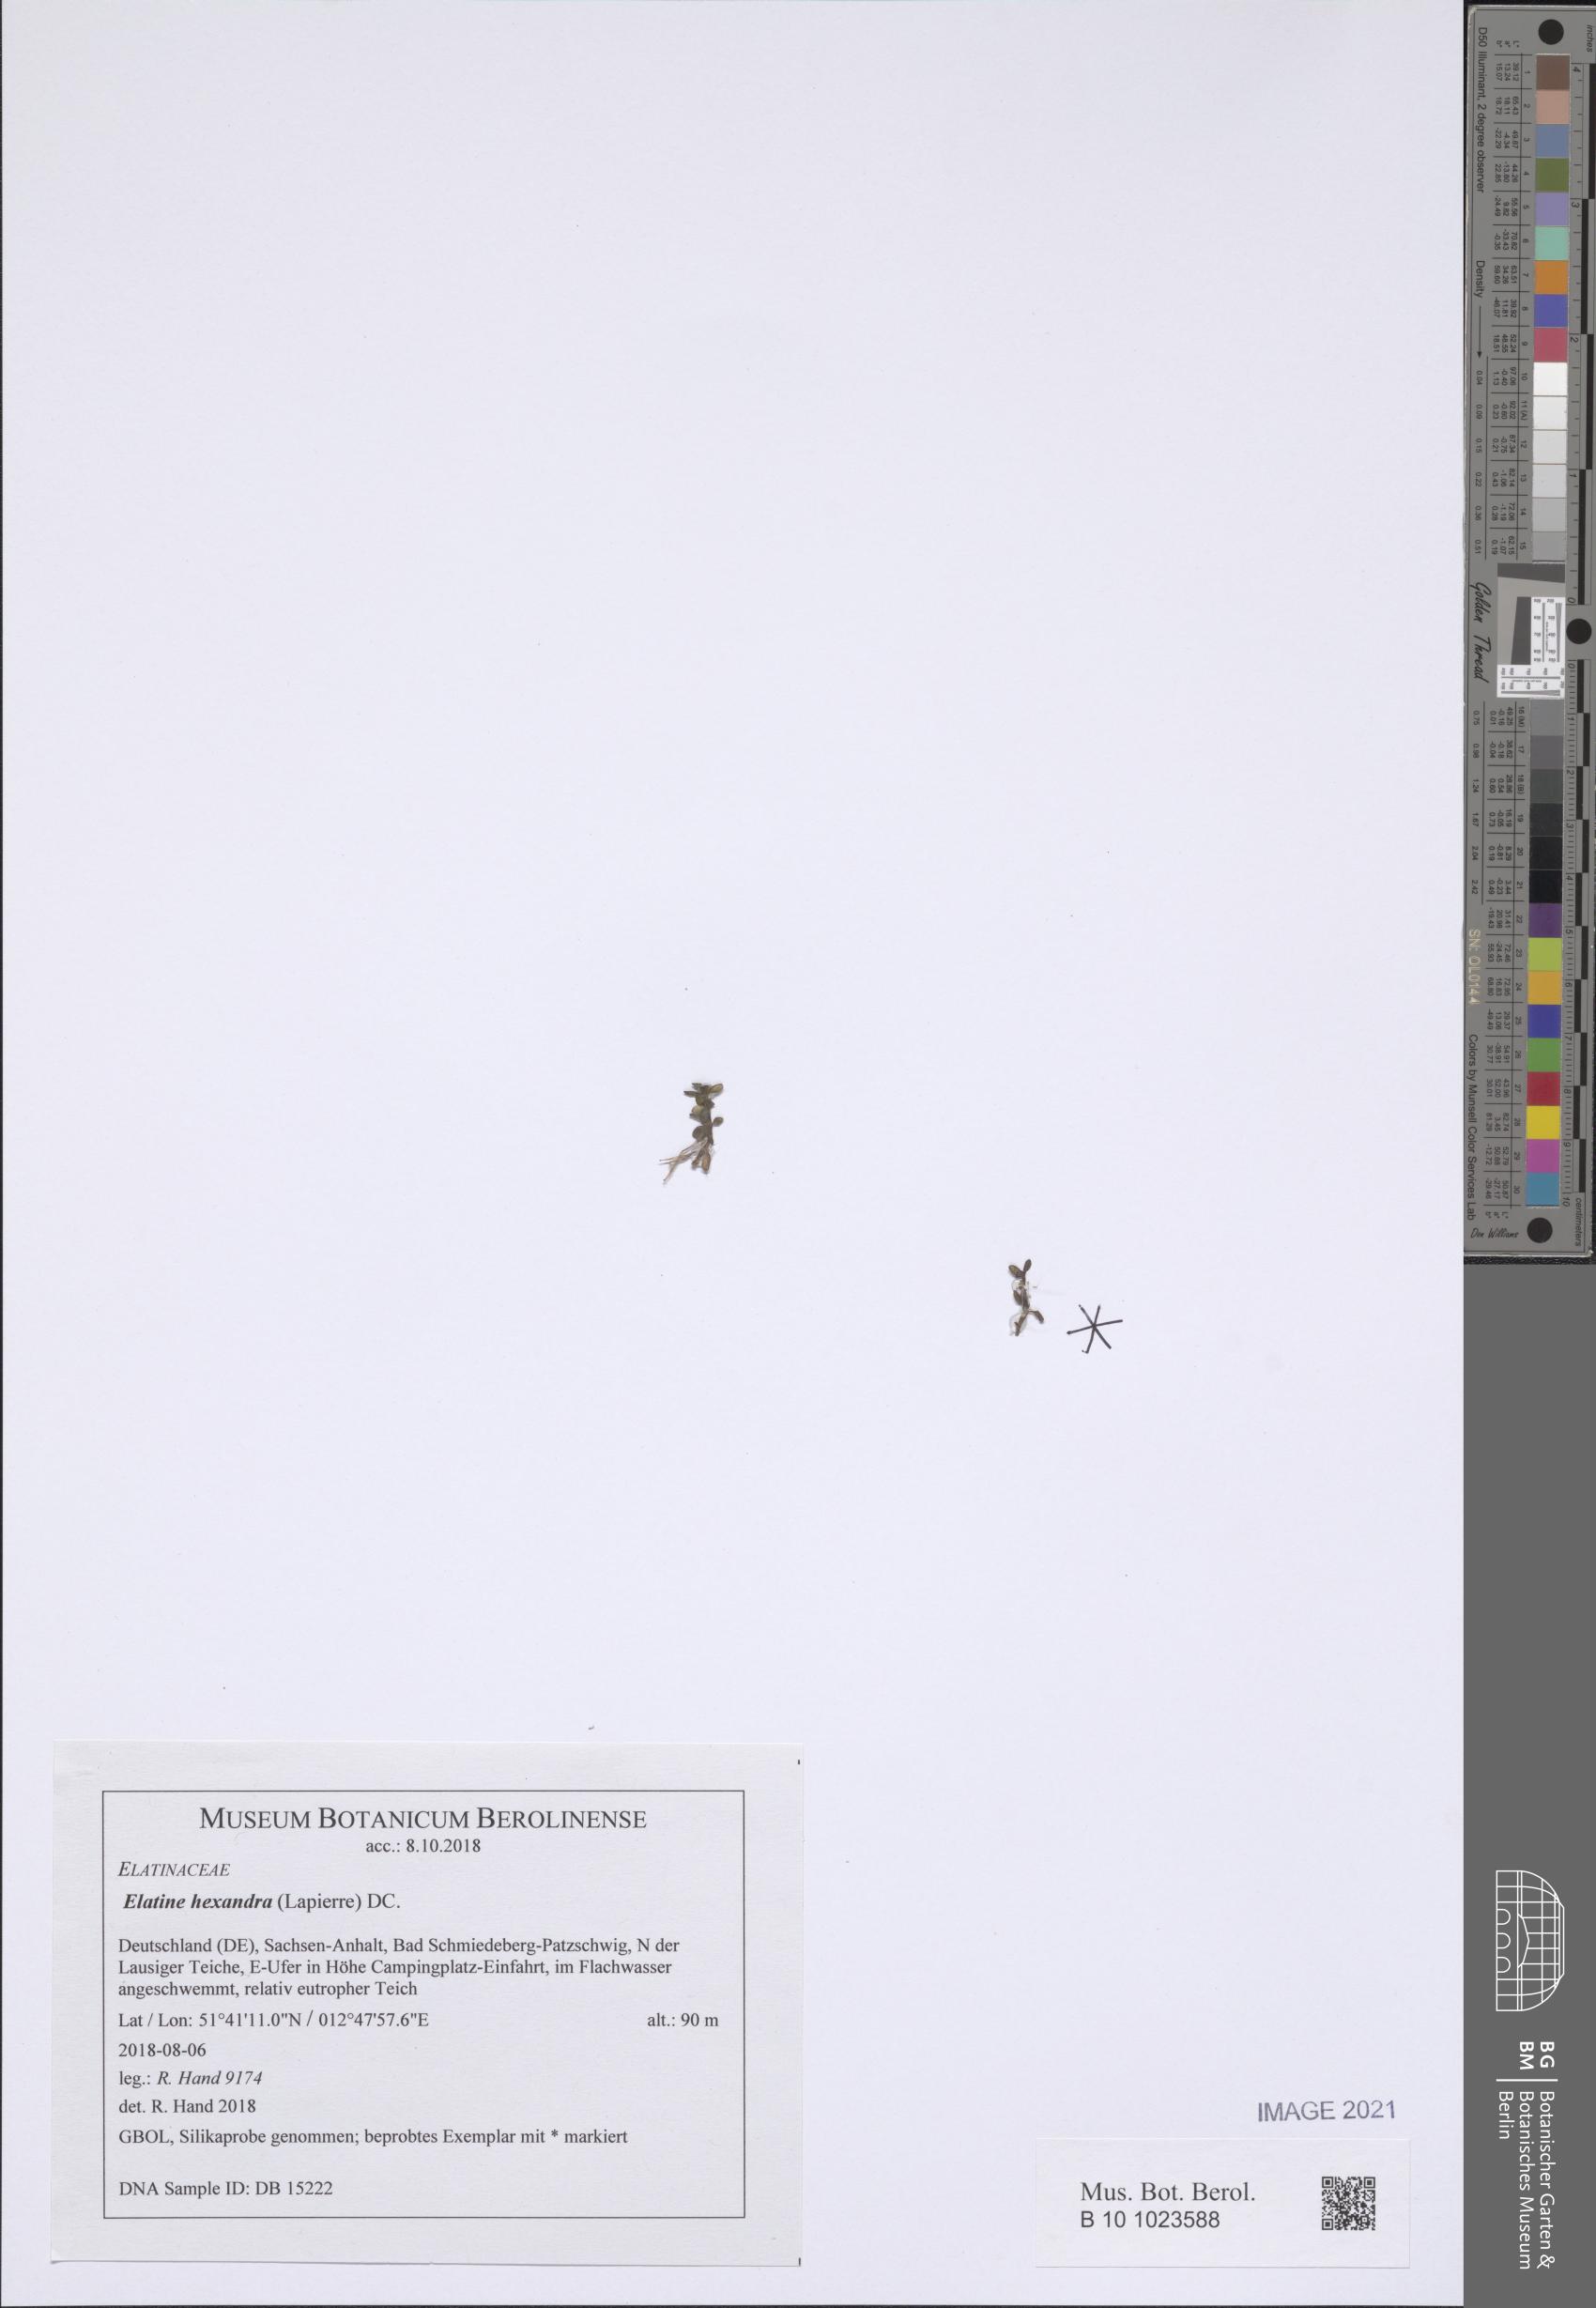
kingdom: Plantae
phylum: Tracheophyta
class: Magnoliopsida
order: Malpighiales
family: Elatinaceae
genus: Elatine
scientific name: Elatine hexandra
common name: Six-stamened waterwort
